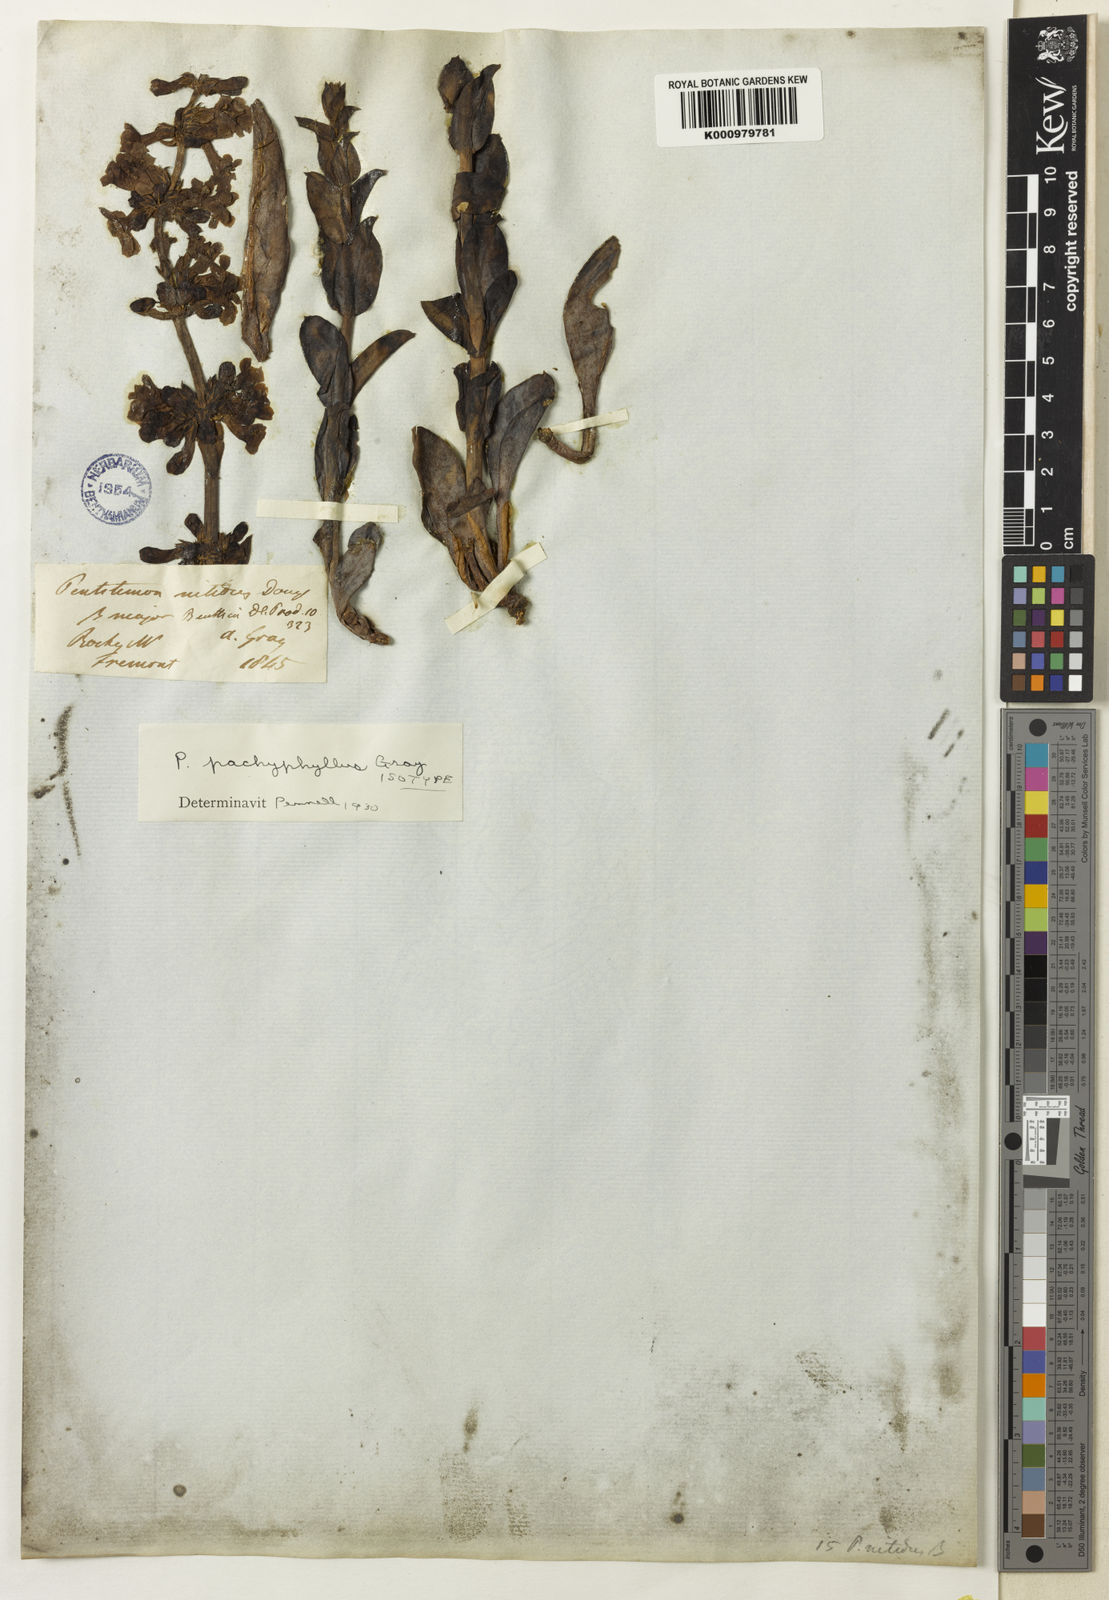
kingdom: Plantae
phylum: Tracheophyta
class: Magnoliopsida
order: Lamiales
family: Plantaginaceae
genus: Penstemon
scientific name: Penstemon pachyphyllus
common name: Thick-leaf penstemon
